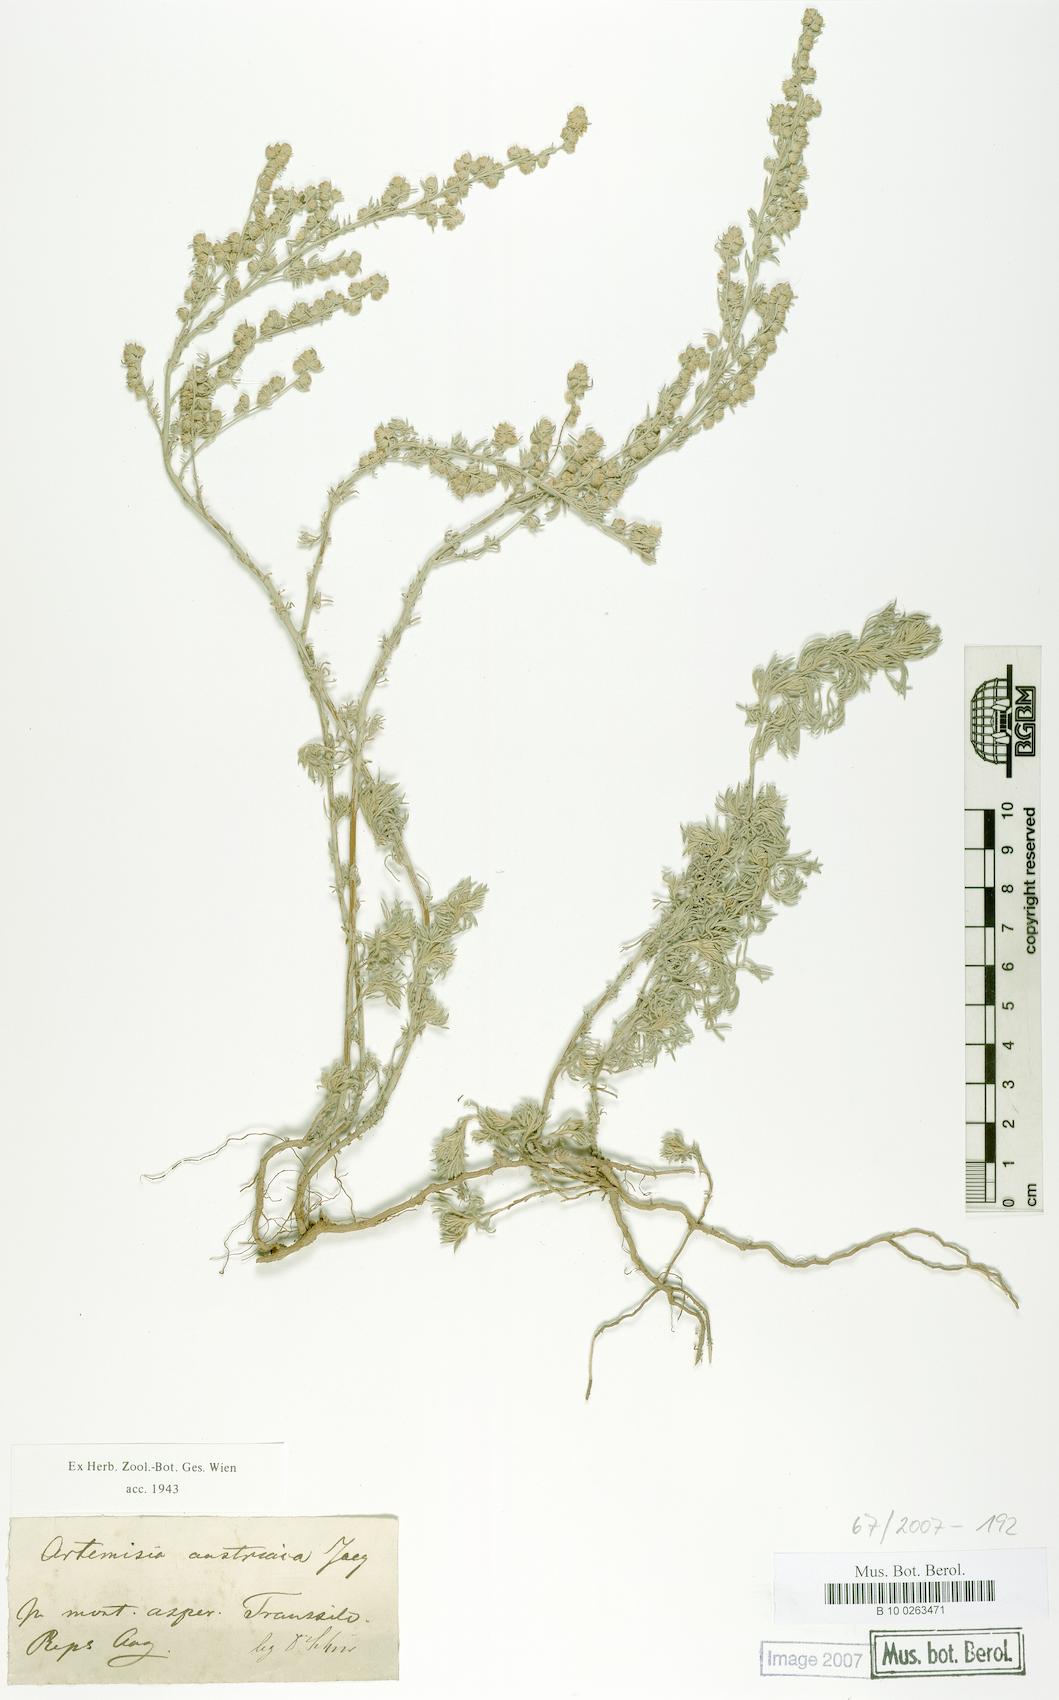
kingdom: Plantae
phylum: Tracheophyta
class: Magnoliopsida
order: Asterales
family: Asteraceae
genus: Artemisia
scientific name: Artemisia austriaca
